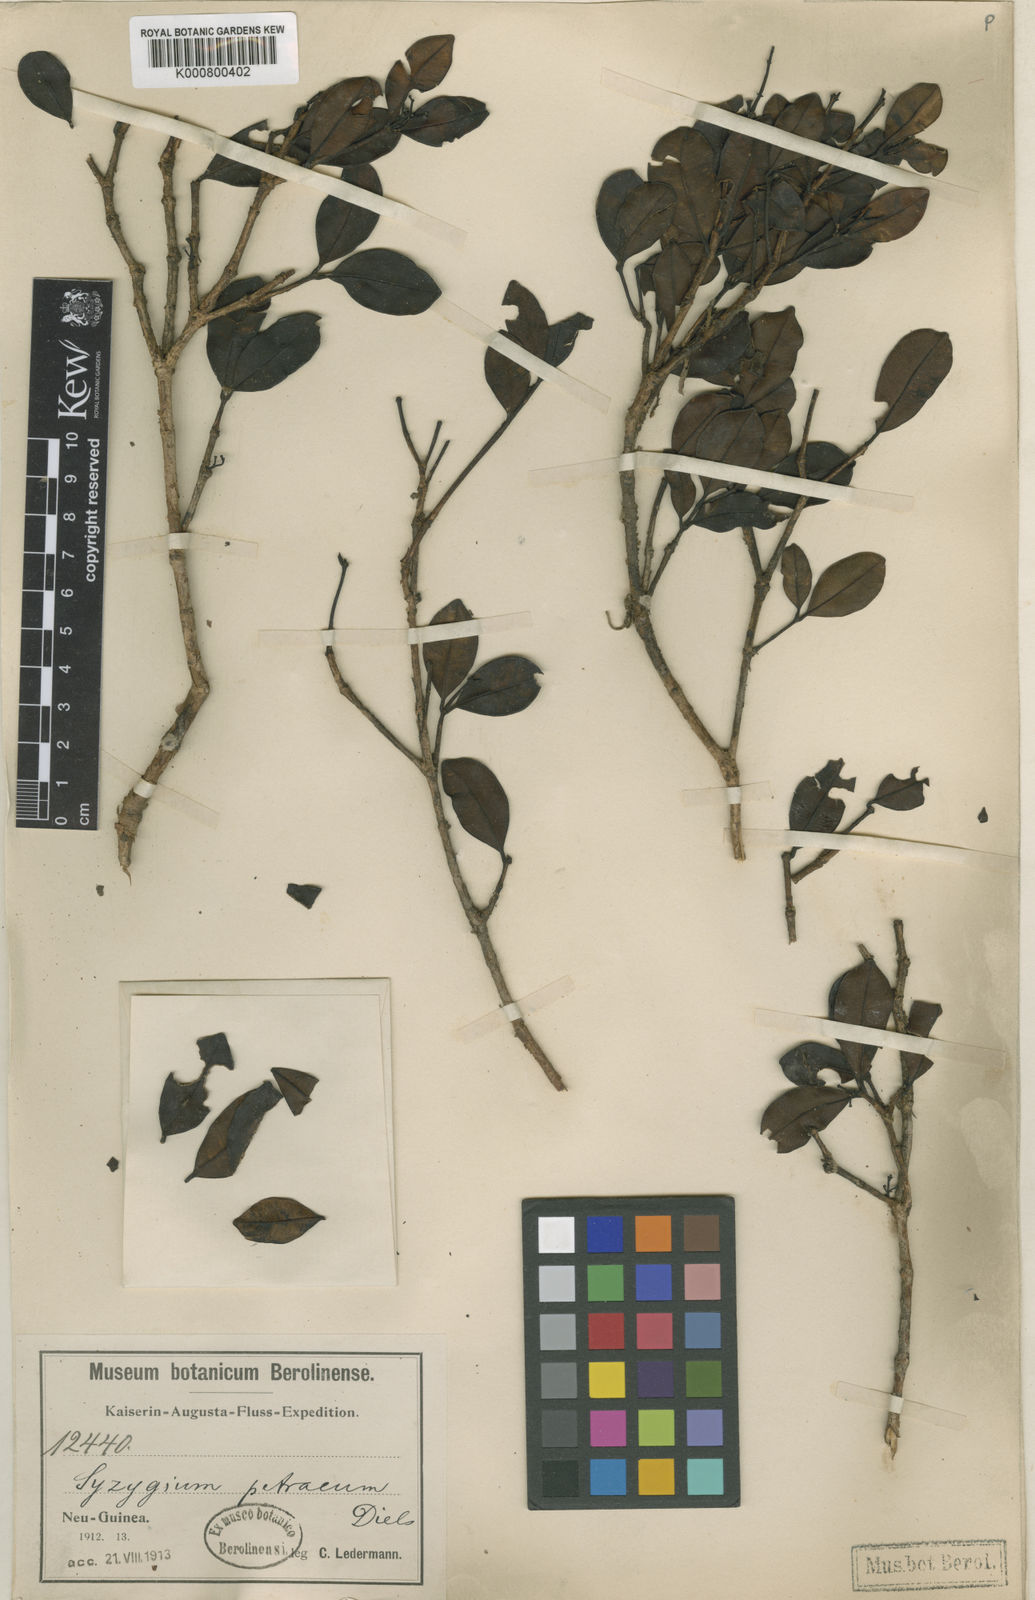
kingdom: Plantae
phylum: Tracheophyta
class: Magnoliopsida
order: Myrtales
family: Myrtaceae
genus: Syzygium
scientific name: Syzygium petraeum
